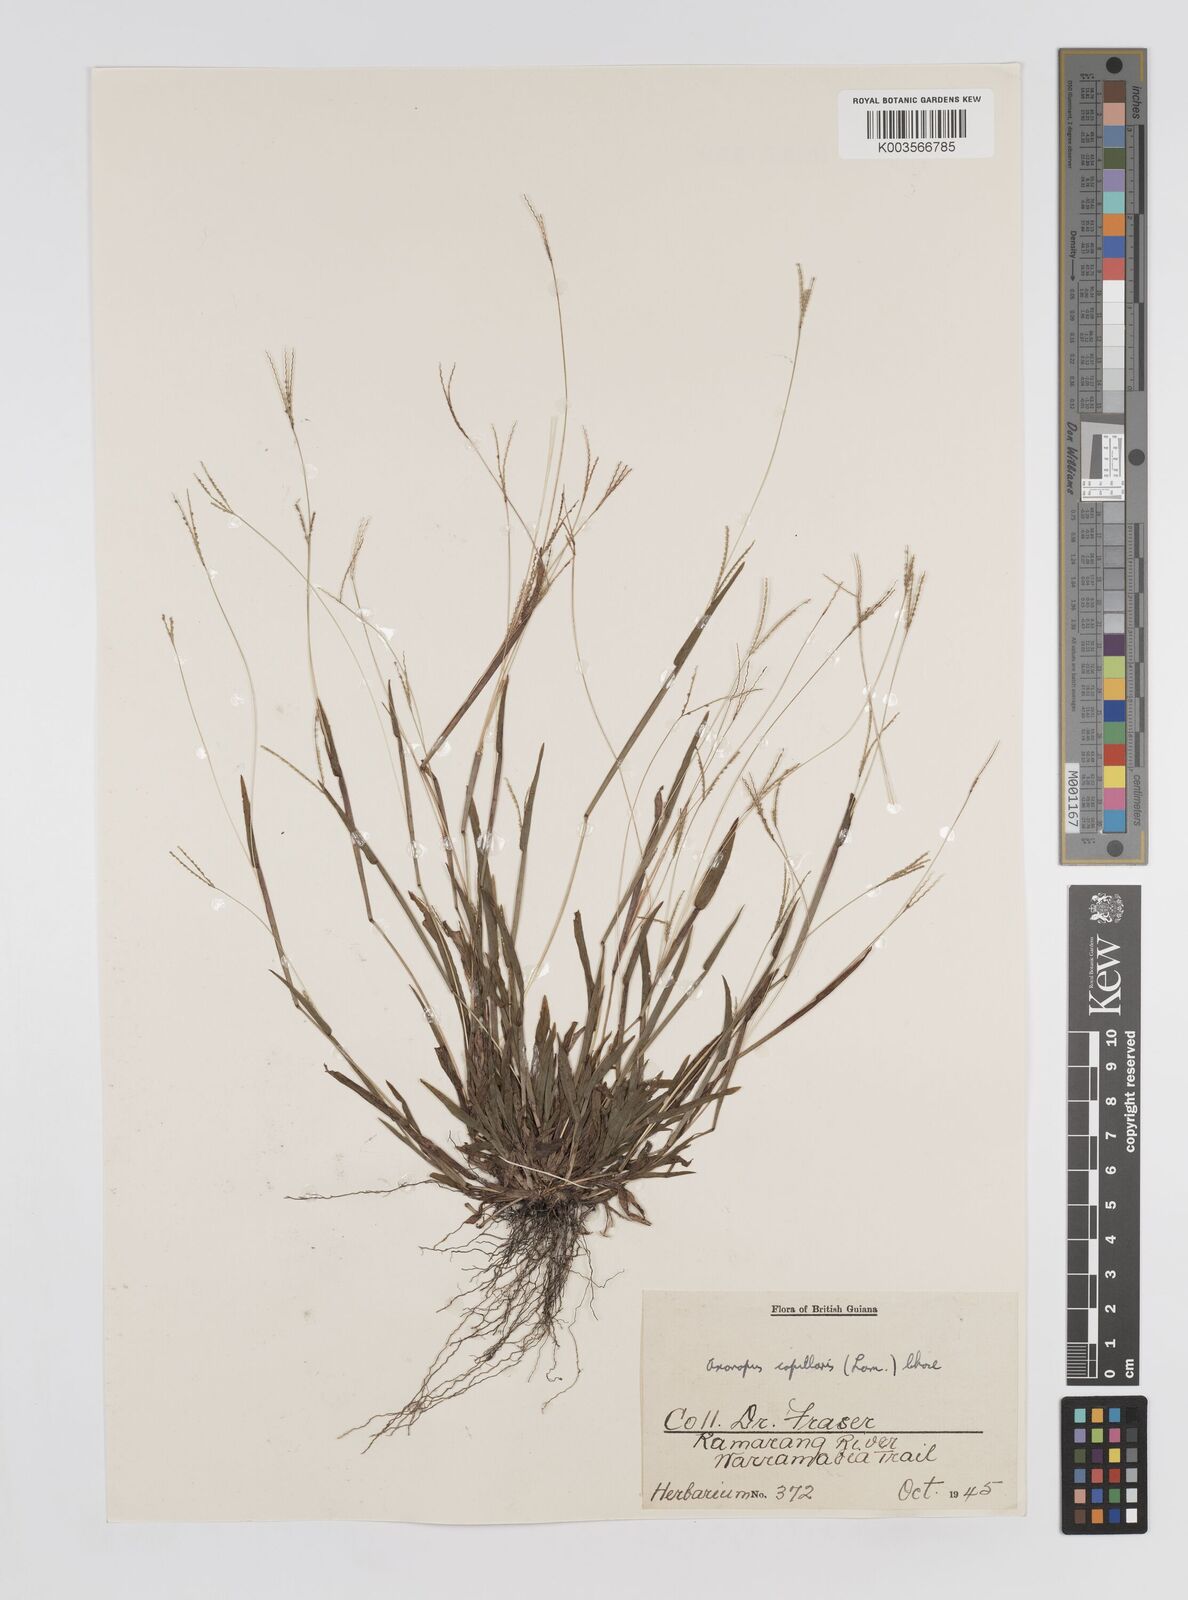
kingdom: Plantae
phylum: Tracheophyta
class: Liliopsida
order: Poales
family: Poaceae
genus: Axonopus
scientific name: Axonopus capillaris
